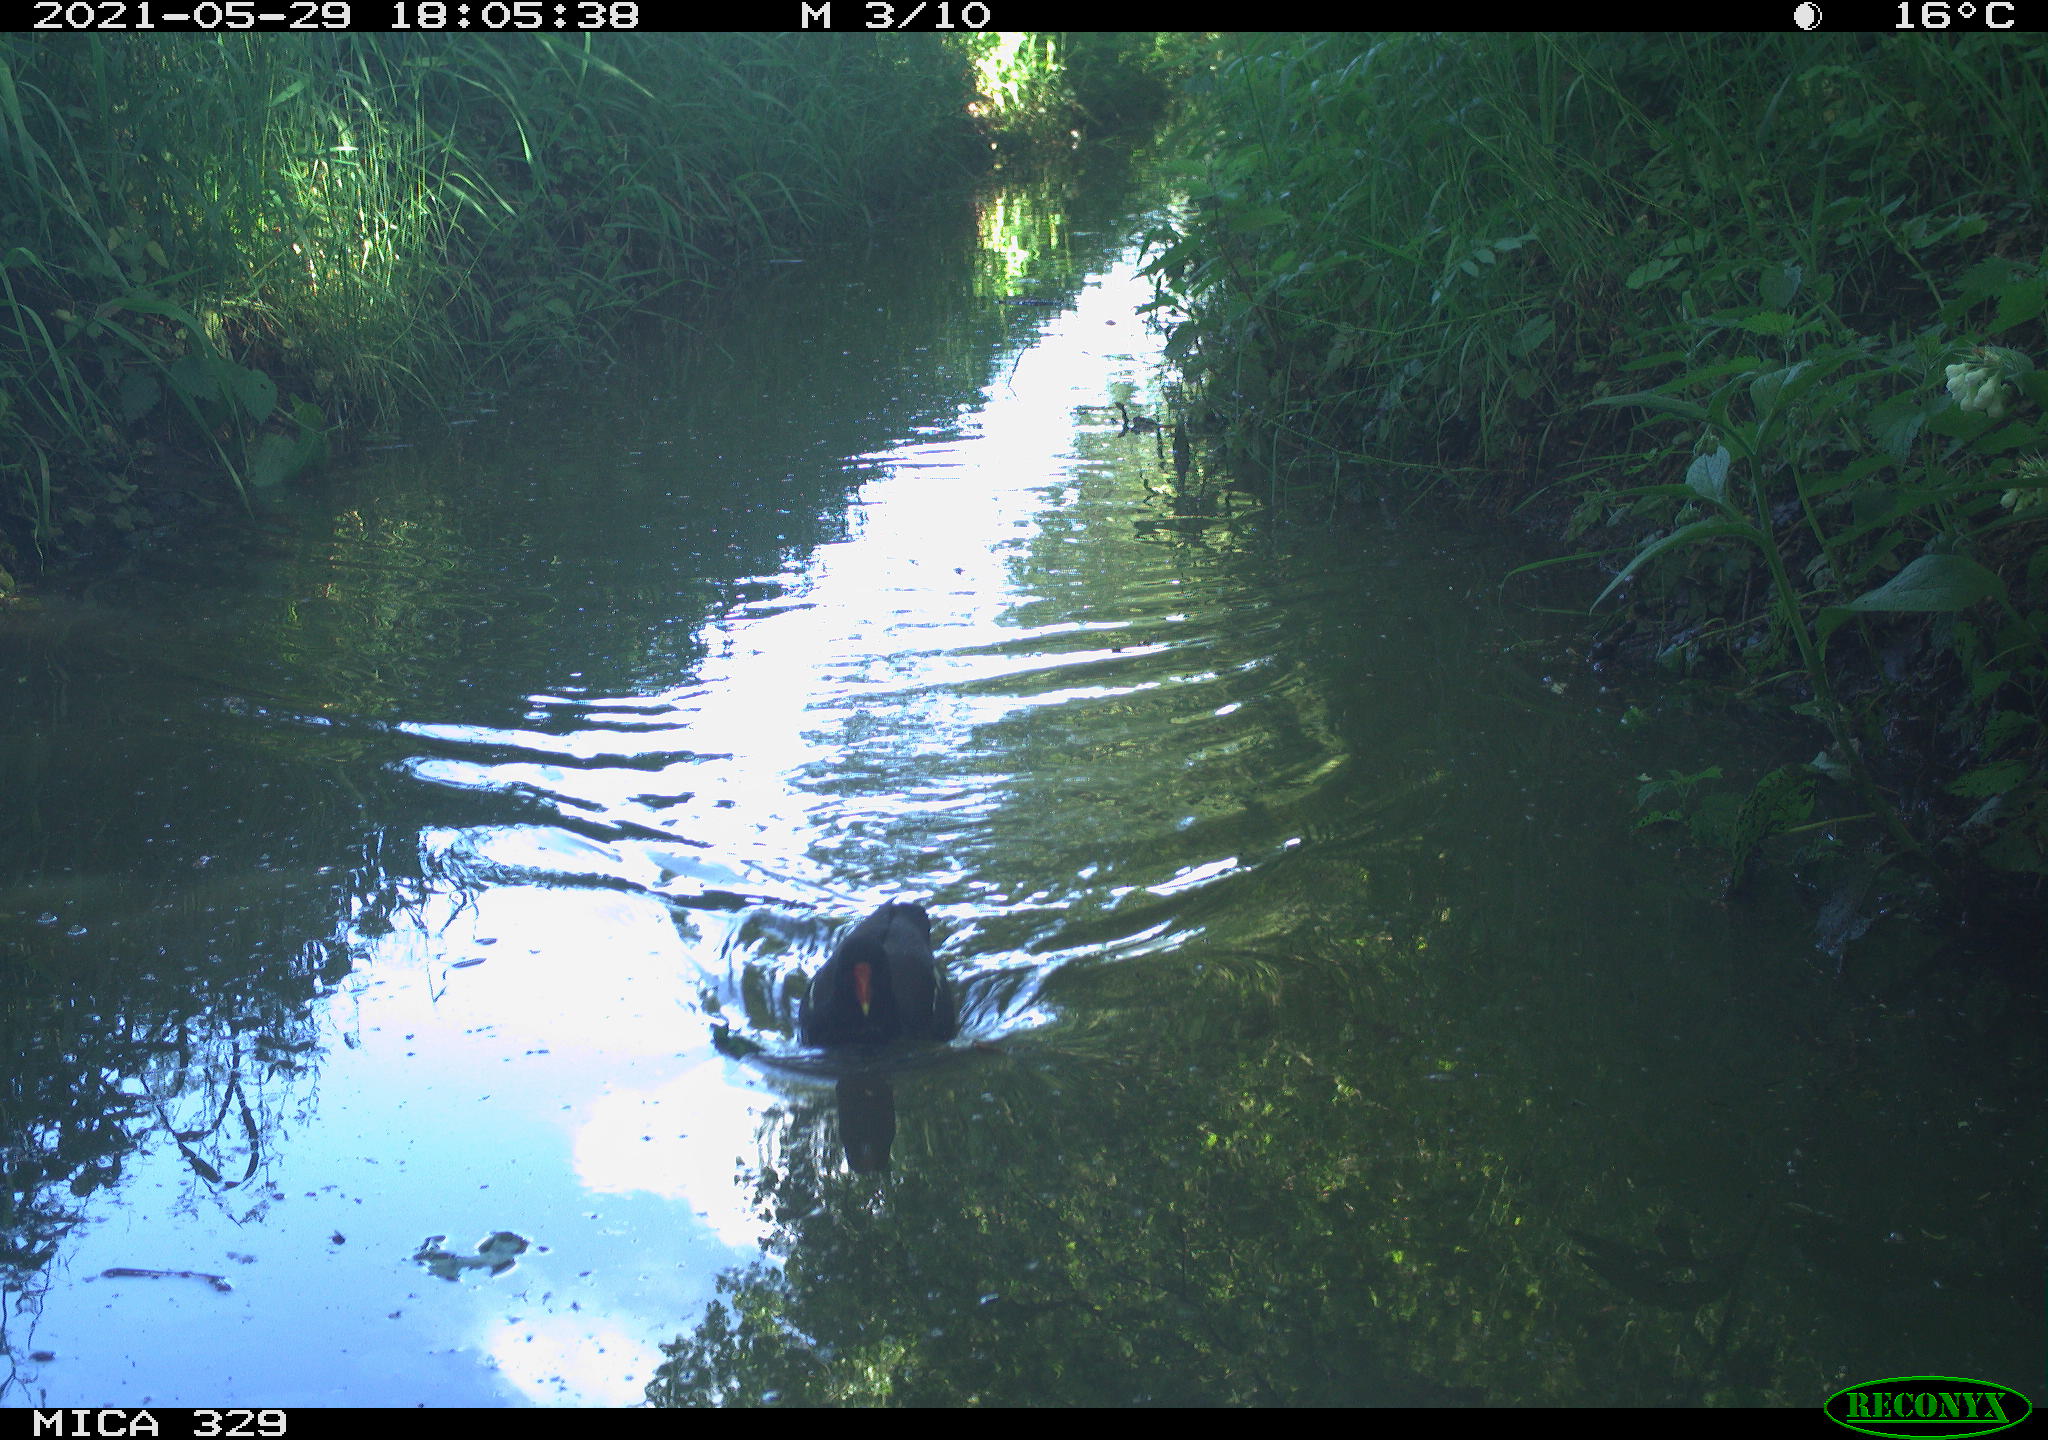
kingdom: Animalia
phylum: Chordata
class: Aves
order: Gruiformes
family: Rallidae
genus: Gallinula
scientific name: Gallinula chloropus
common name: Common moorhen
